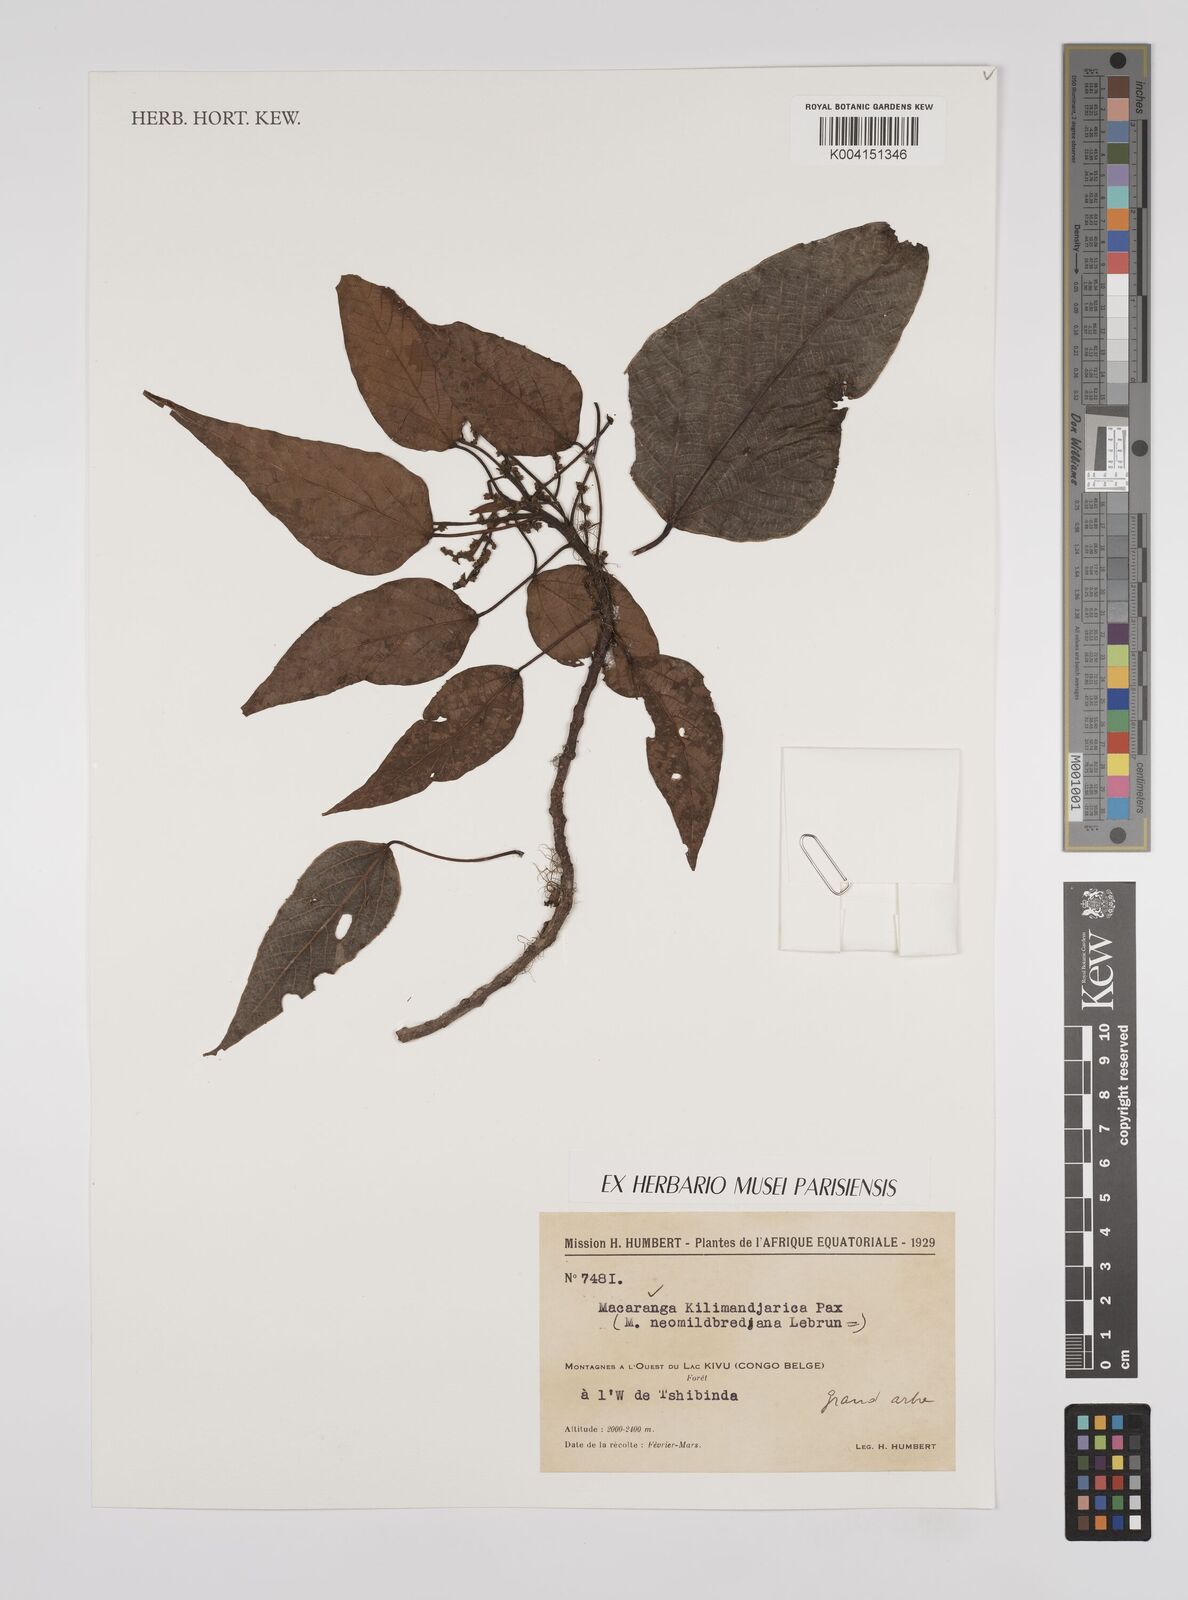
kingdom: Plantae
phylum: Tracheophyta
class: Magnoliopsida
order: Malpighiales
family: Euphorbiaceae
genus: Macaranga
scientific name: Macaranga kilimandscharica
